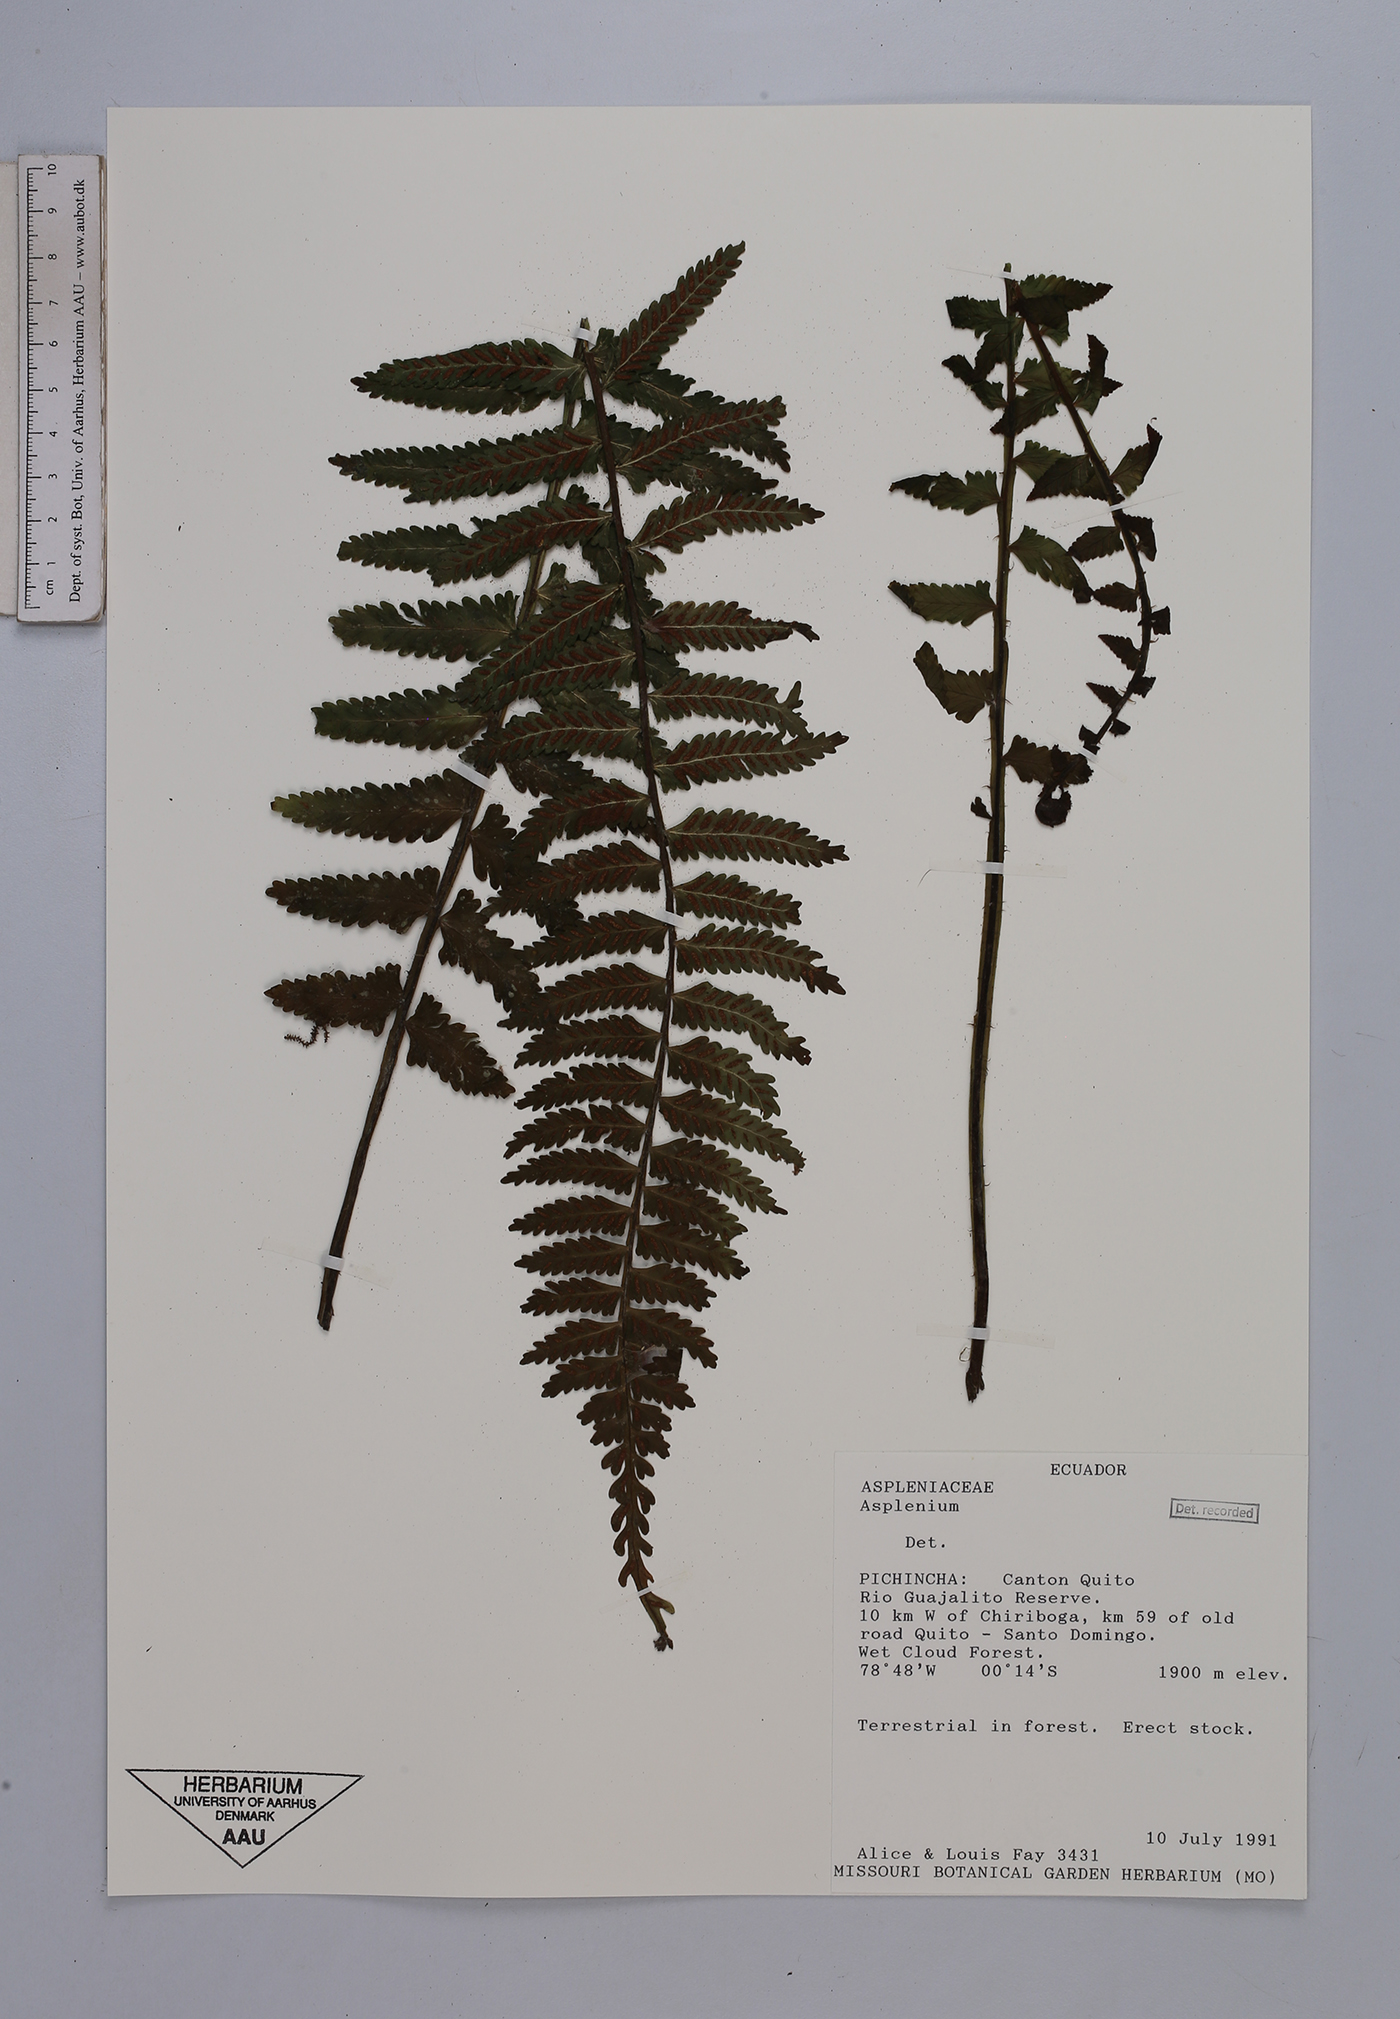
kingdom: Plantae
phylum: Tracheophyta
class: Polypodiopsida
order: Polypodiales
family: Aspleniaceae
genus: Asplenium
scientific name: Asplenium pteropus
